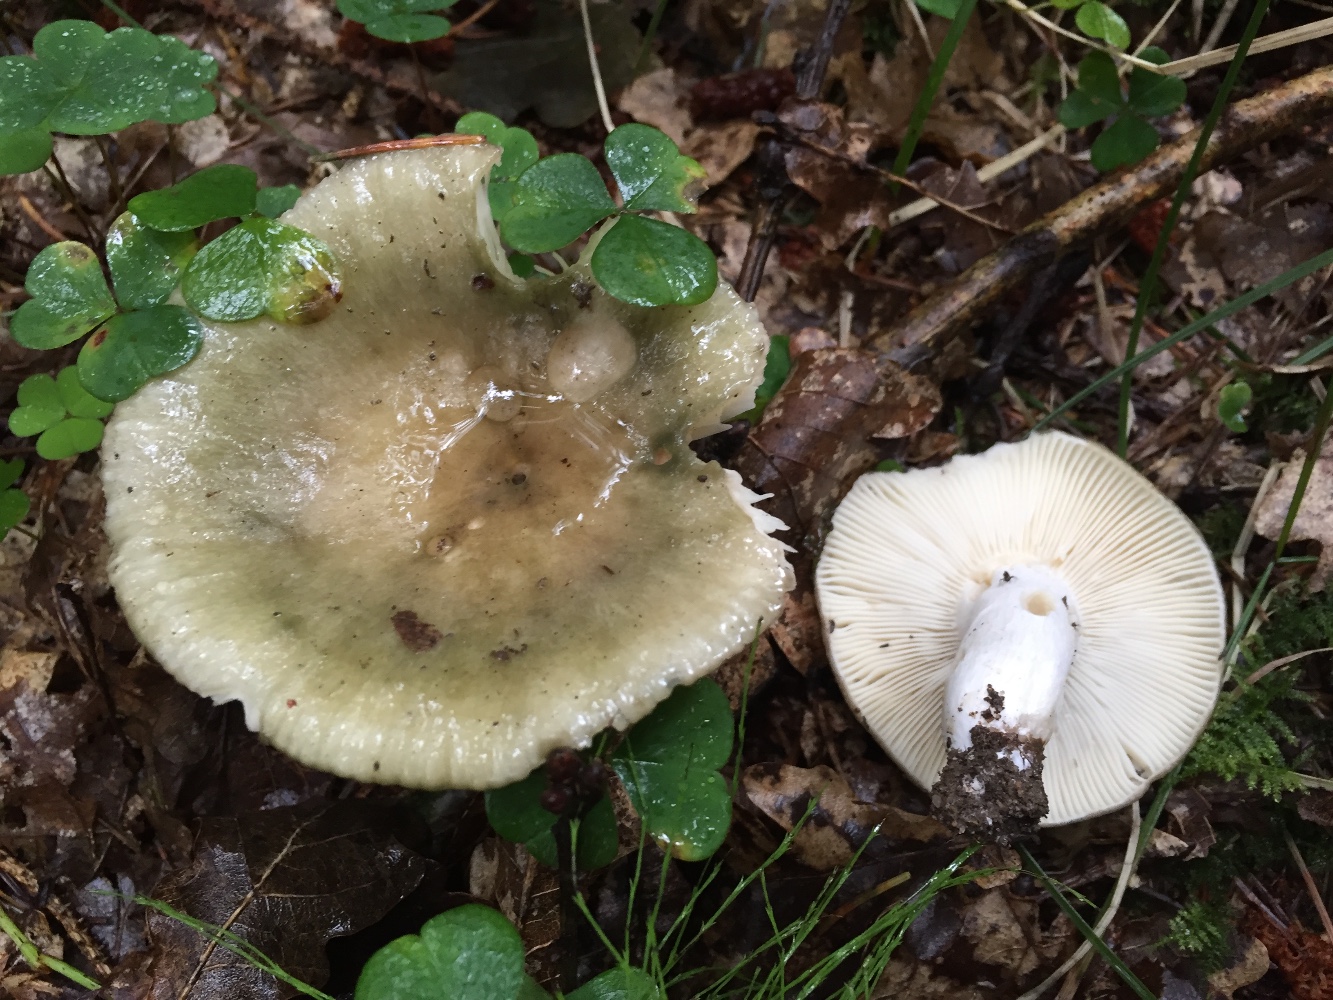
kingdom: Fungi
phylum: Basidiomycota
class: Agaricomycetes
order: Russulales
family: Russulaceae
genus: Russula
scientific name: Russula aeruginea
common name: græsgrøn skørhat
